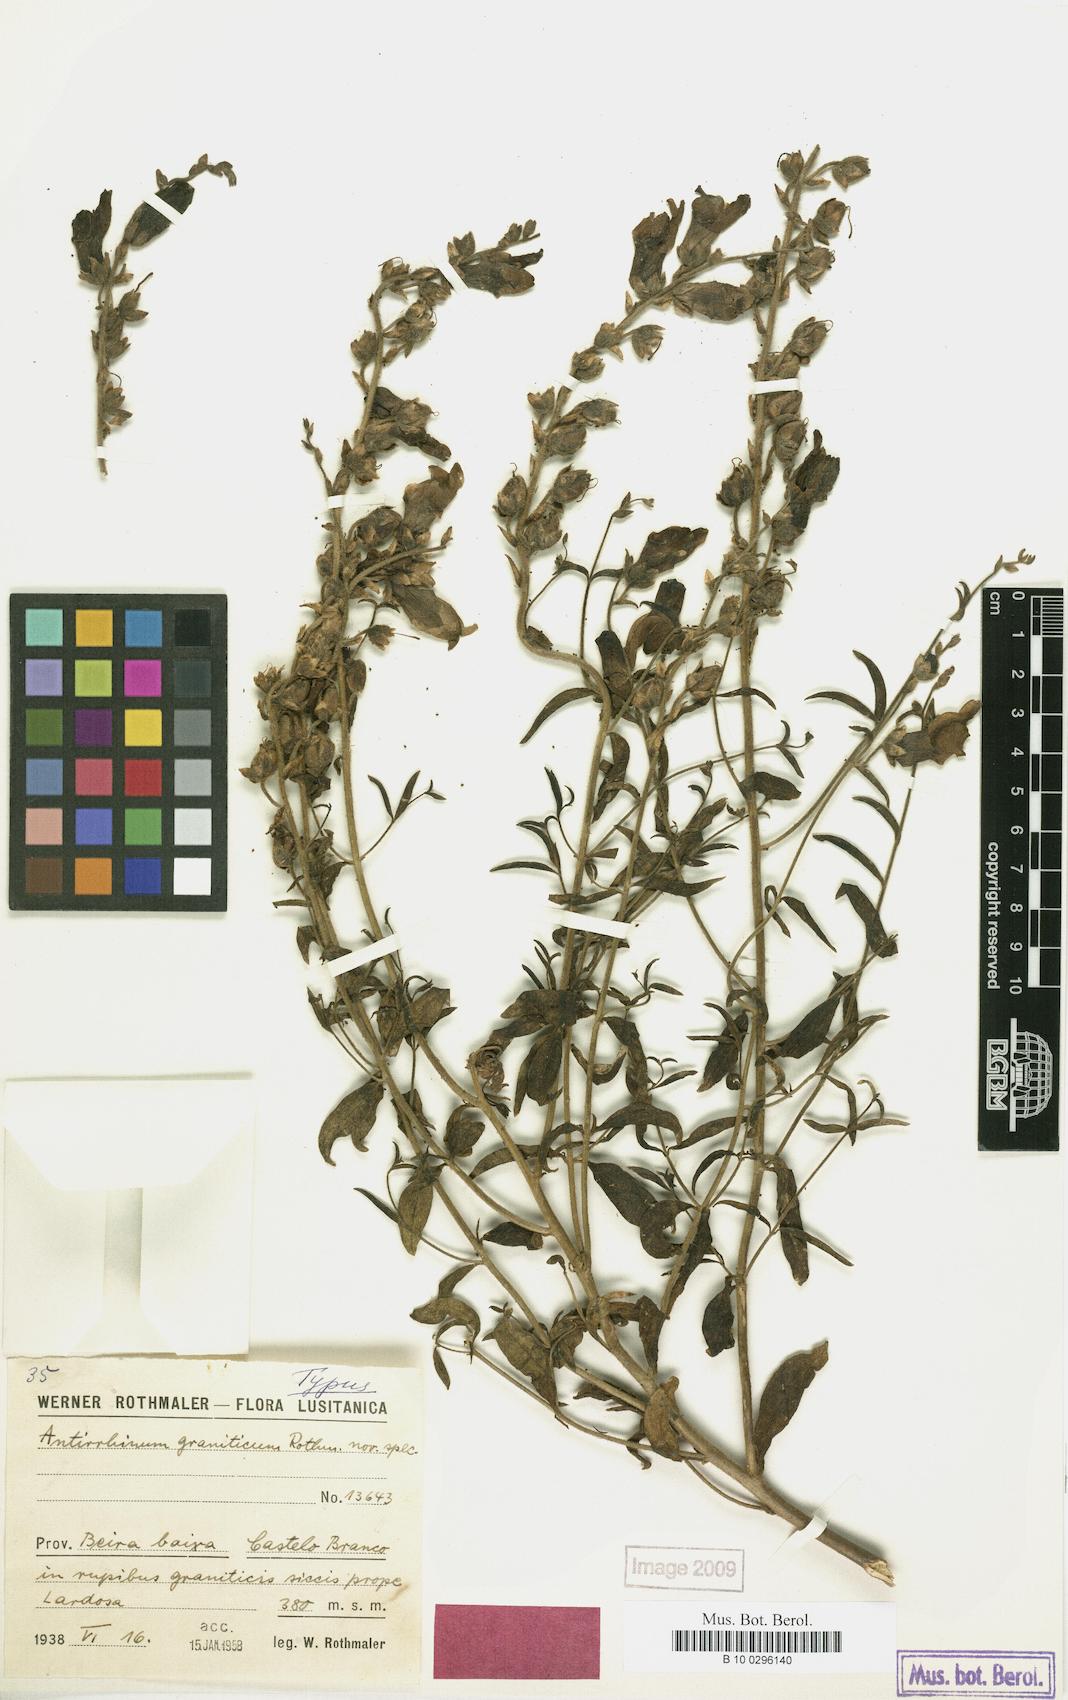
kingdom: Plantae
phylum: Tracheophyta
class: Magnoliopsida
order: Lamiales
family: Plantaginaceae
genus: Antirrhinum
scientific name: Antirrhinum graniticum
